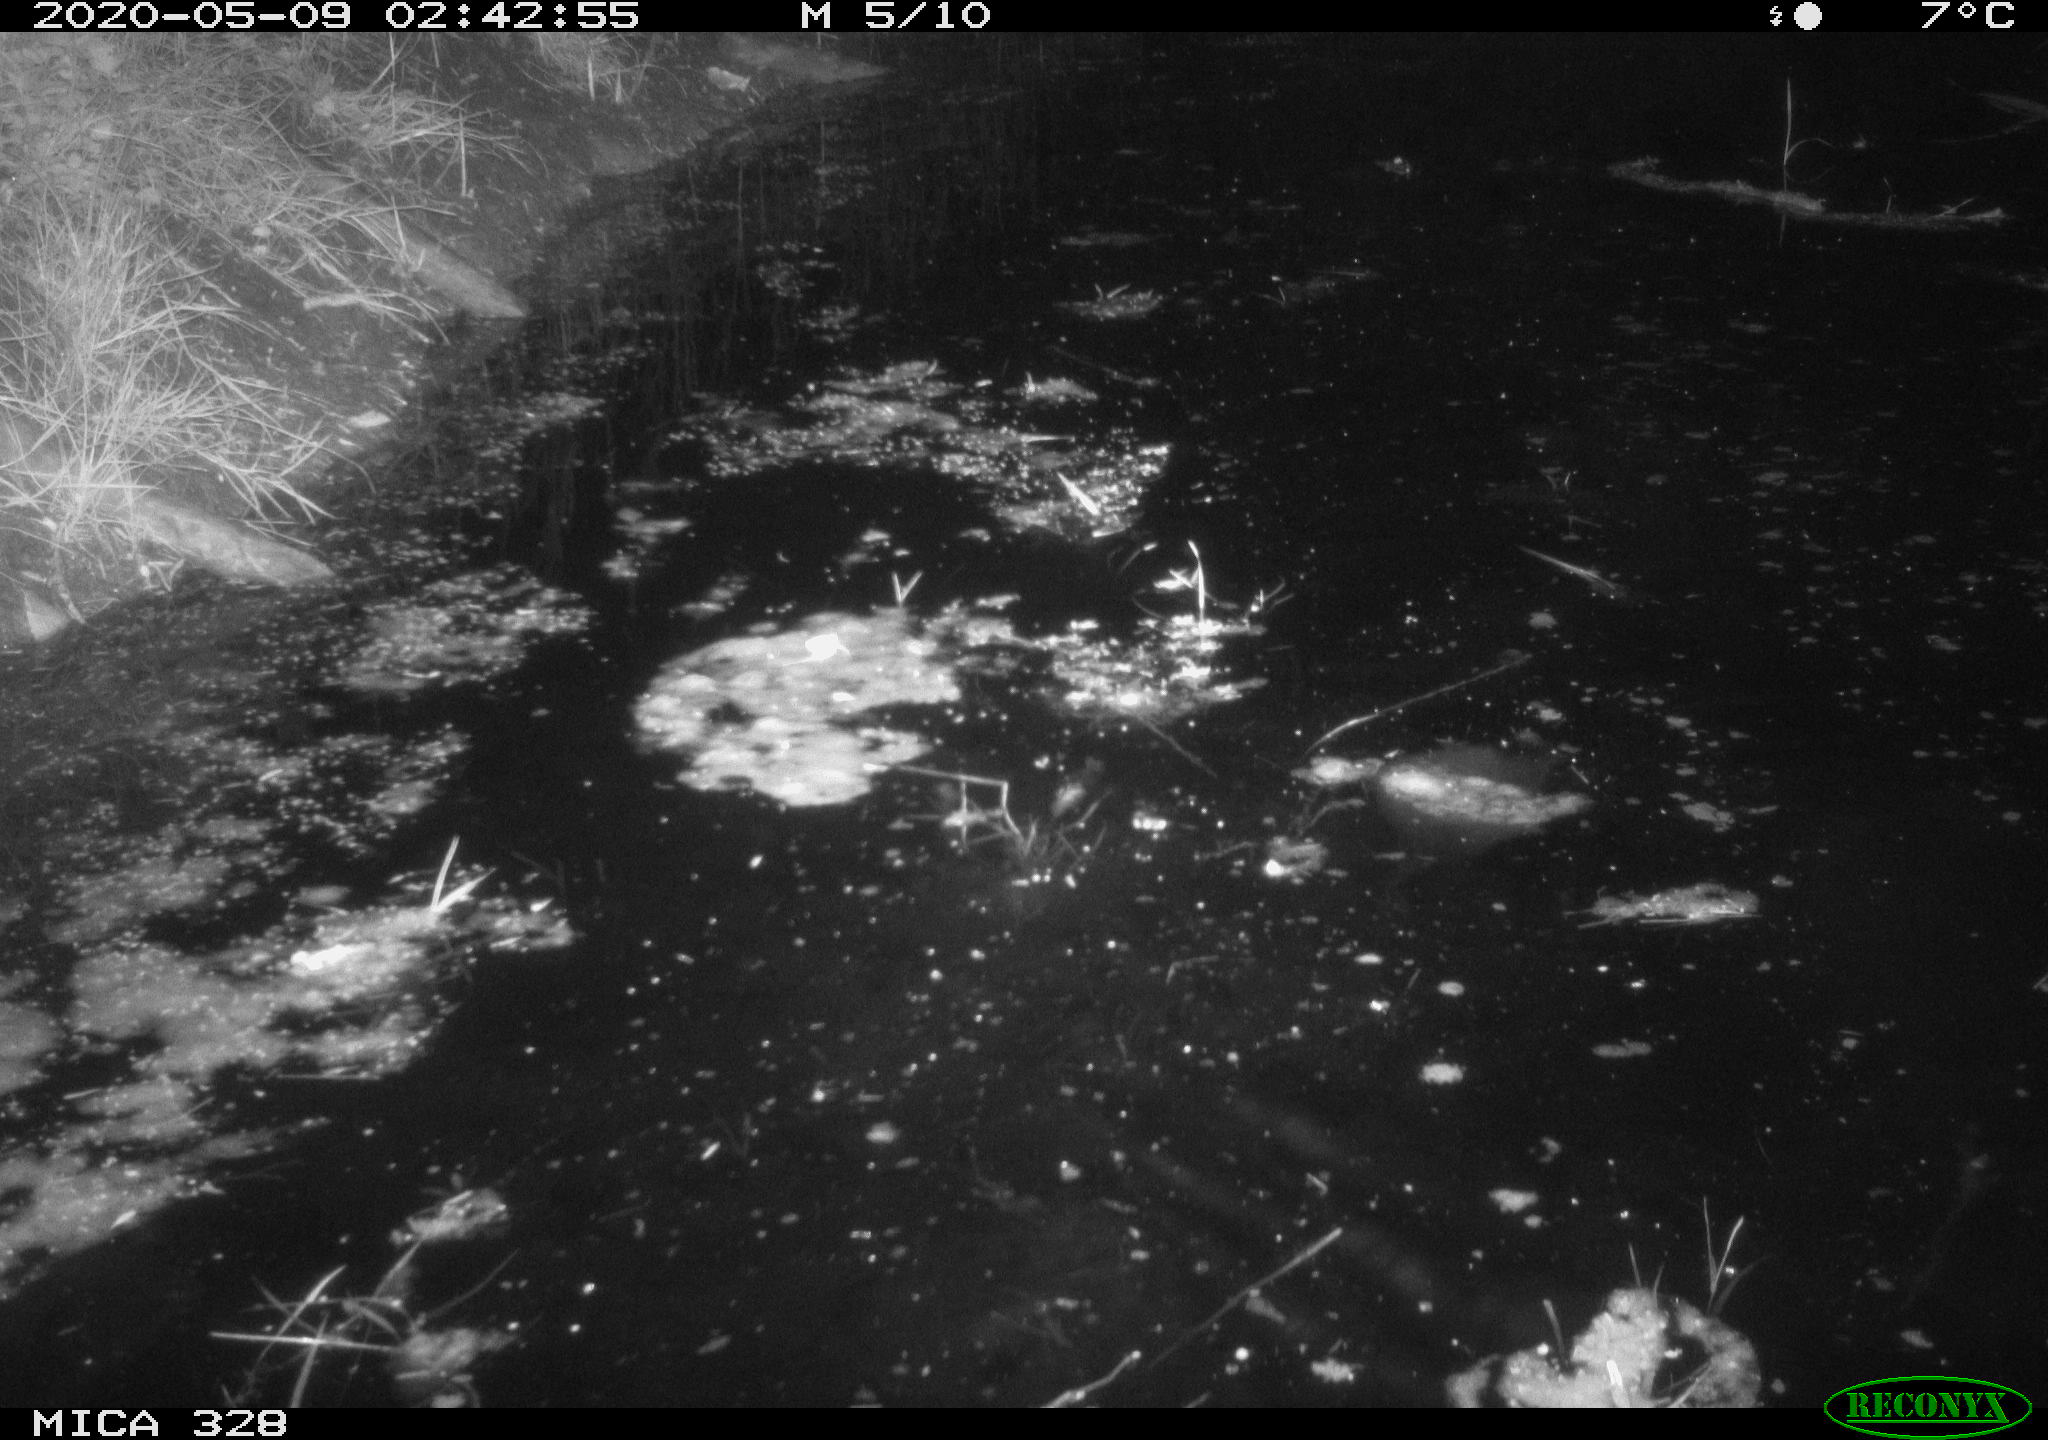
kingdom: Animalia
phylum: Chordata
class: Aves
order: Anseriformes
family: Anatidae
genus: Anas
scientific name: Anas platyrhynchos
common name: Mallard
